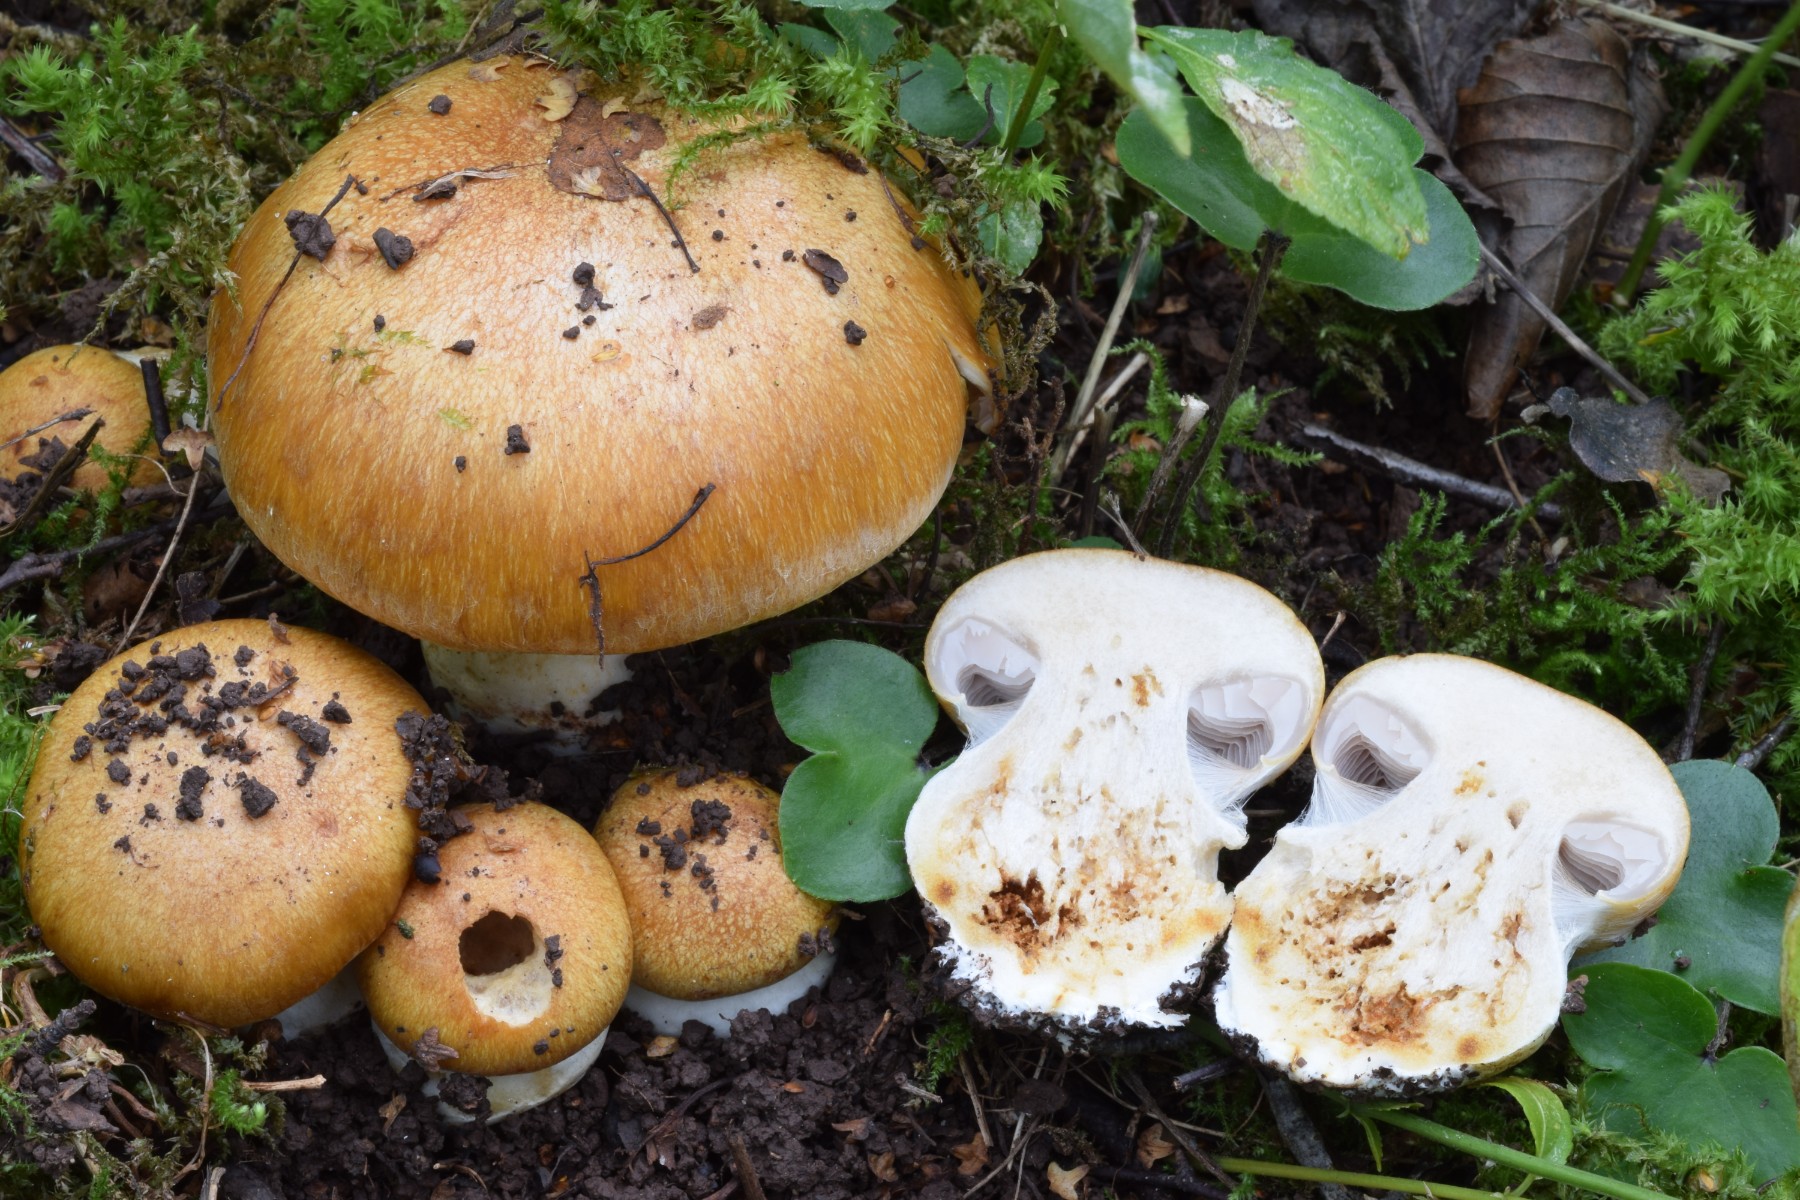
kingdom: Fungi
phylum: Basidiomycota
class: Agaricomycetes
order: Agaricales
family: Cortinariaceae
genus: Phlegmacium
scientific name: Phlegmacium subdecolorans
